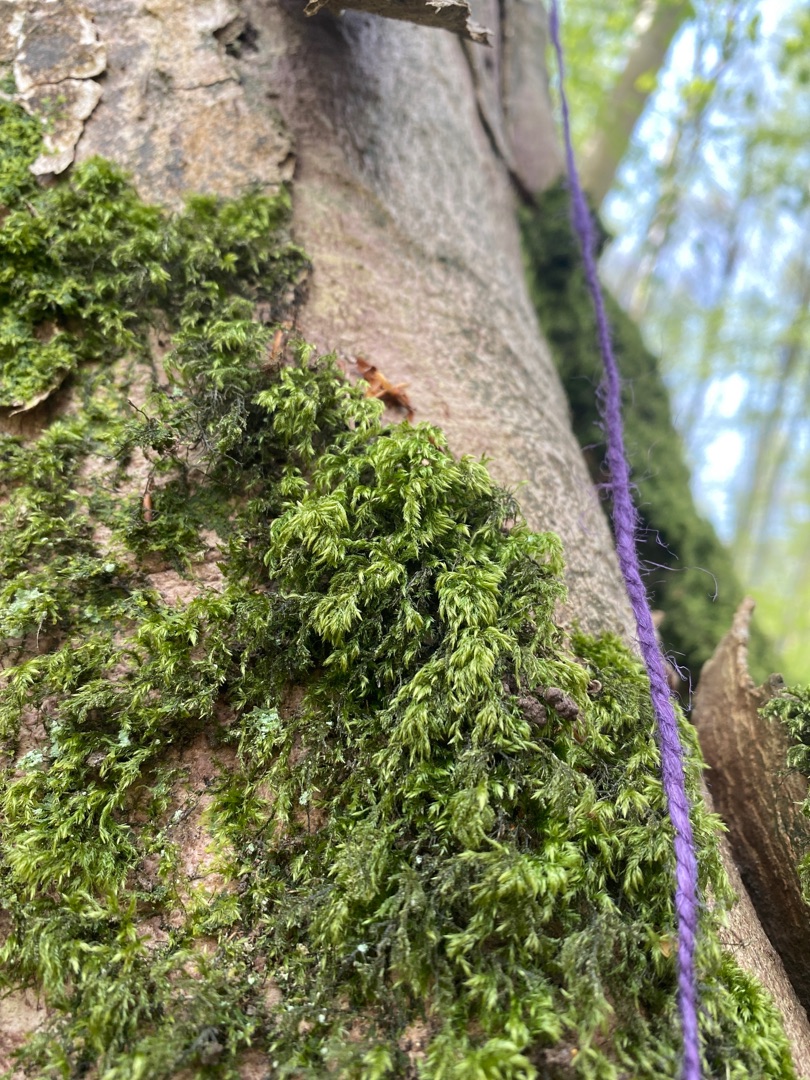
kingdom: Plantae
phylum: Bryophyta
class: Bryopsida
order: Hypnales
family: Lembophyllaceae
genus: Pseudisothecium
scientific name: Pseudisothecium myosuroides
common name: Slank stammemos
